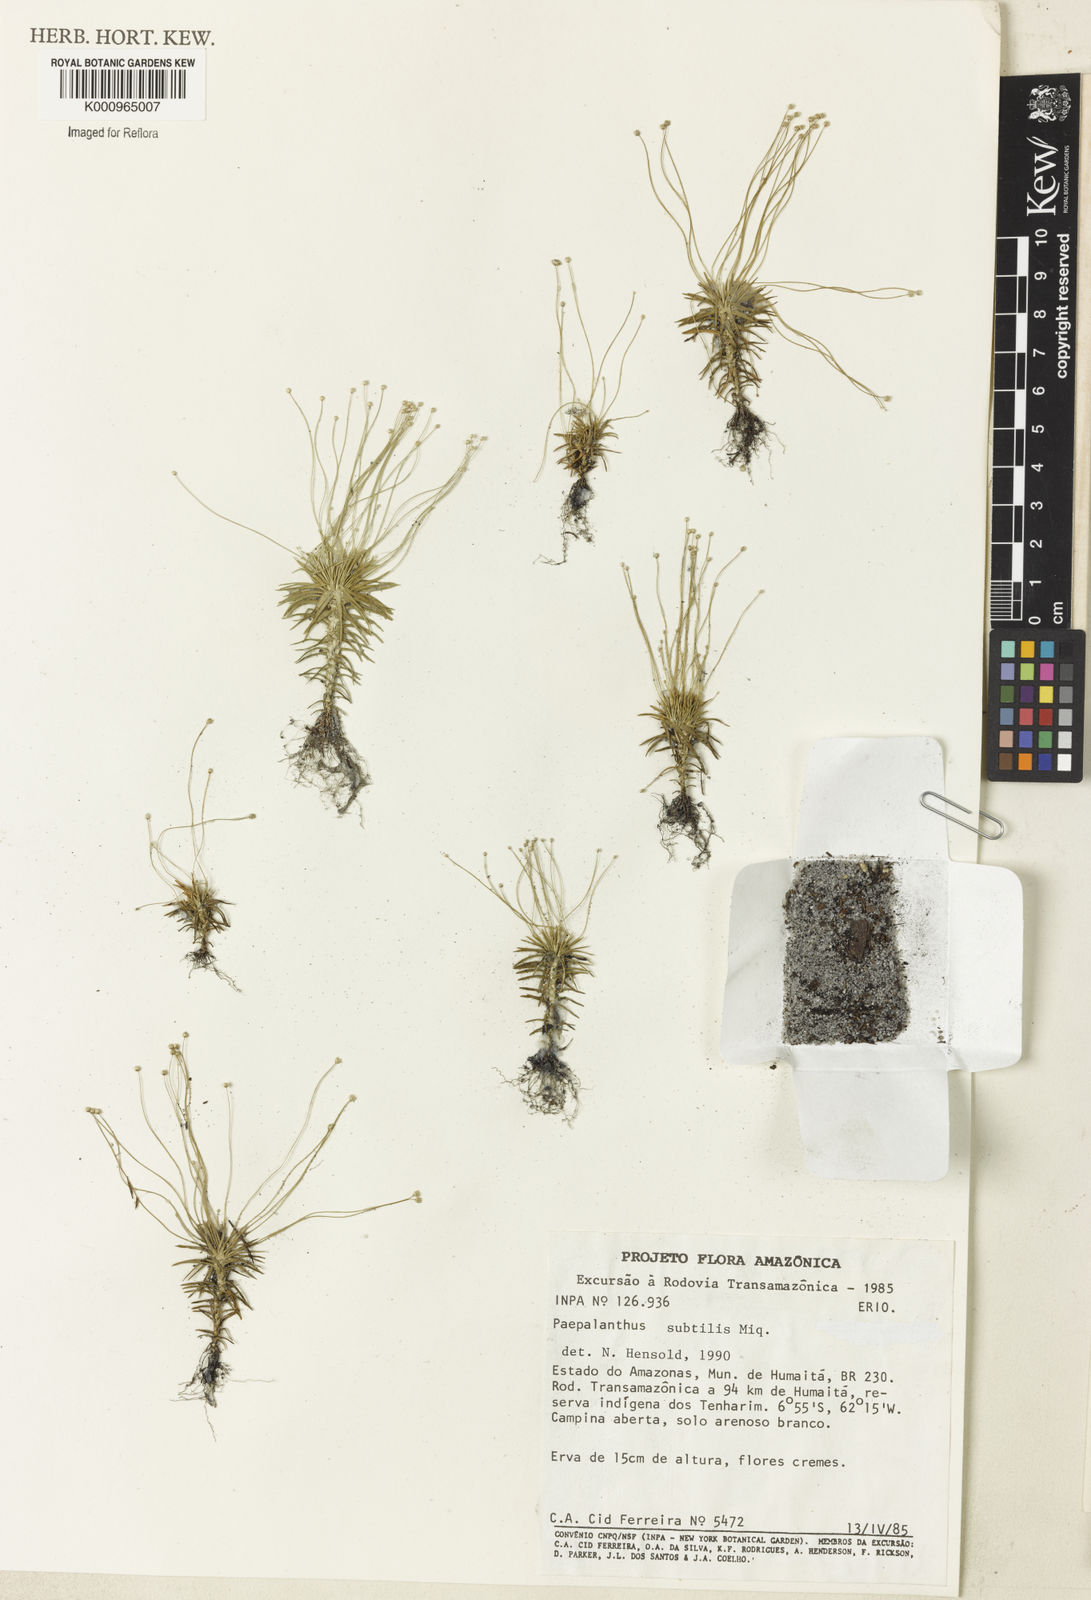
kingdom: Plantae
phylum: Tracheophyta
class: Liliopsida
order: Poales
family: Eriocaulaceae
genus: Paepalanthus
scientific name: Paepalanthus subtilis
